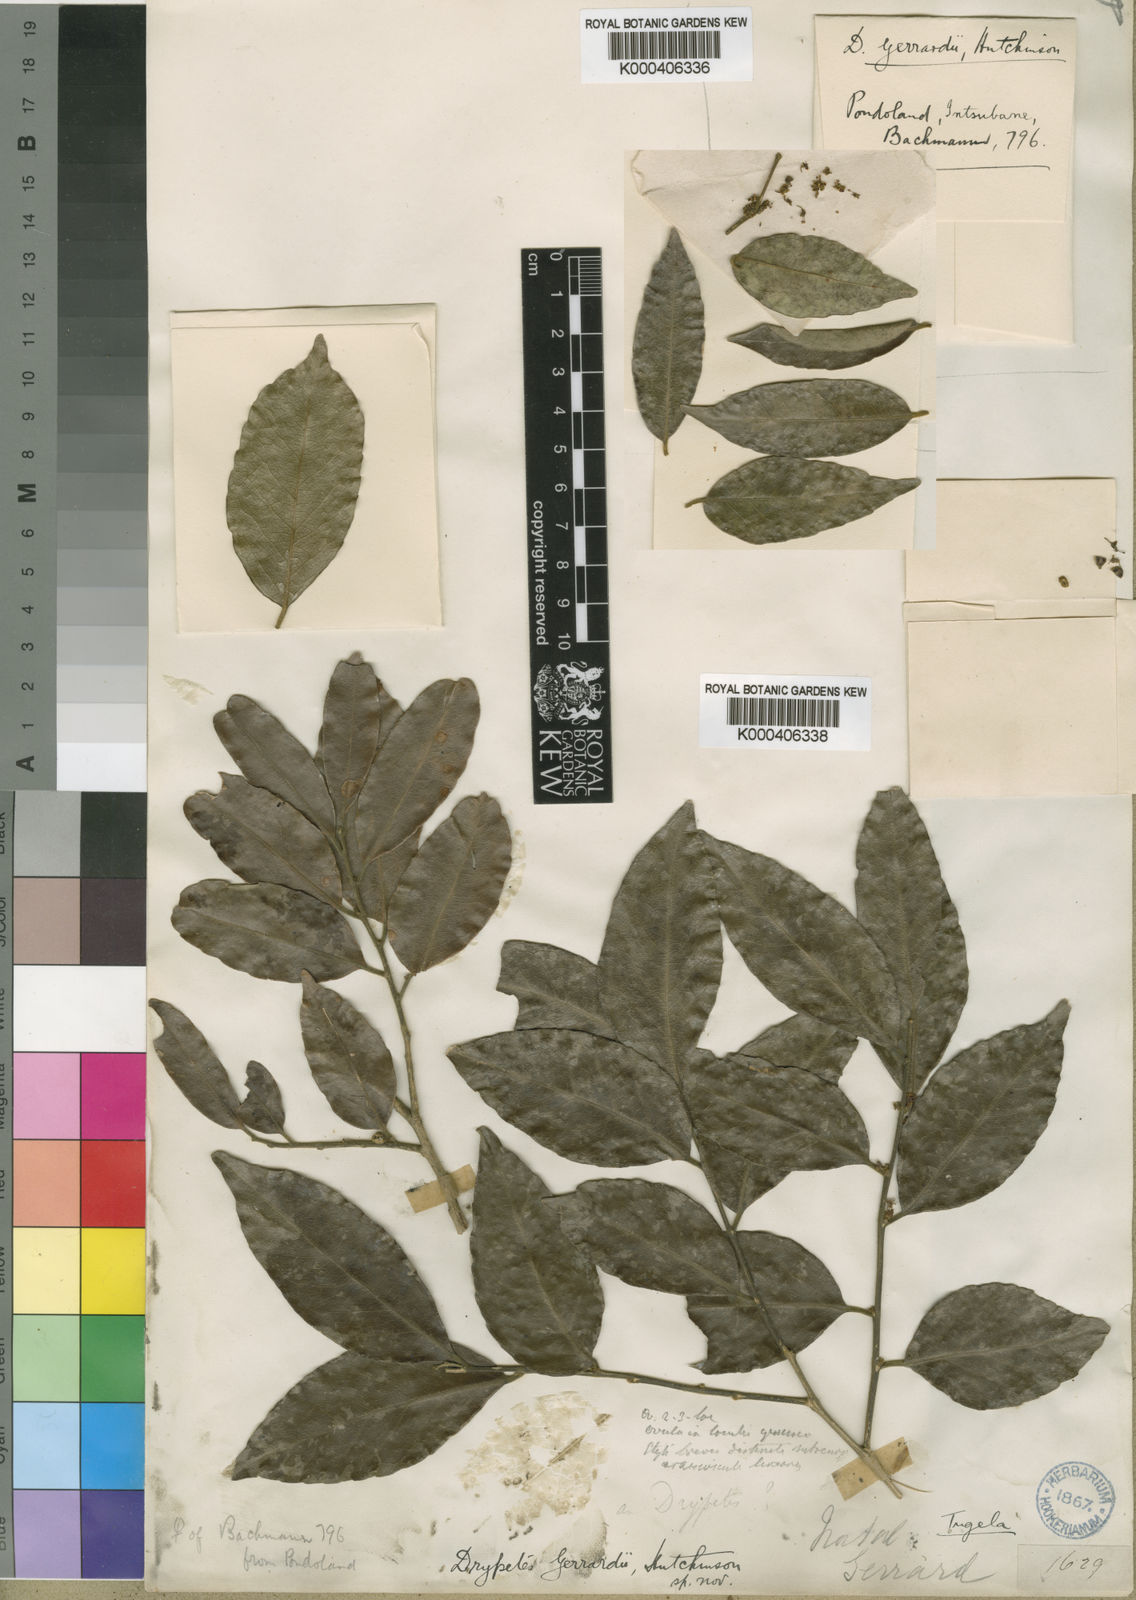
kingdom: Plantae
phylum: Tracheophyta
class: Magnoliopsida
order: Malpighiales
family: Putranjivaceae
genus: Drypetes
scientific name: Drypetes gerrardii
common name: Forest ironplum
